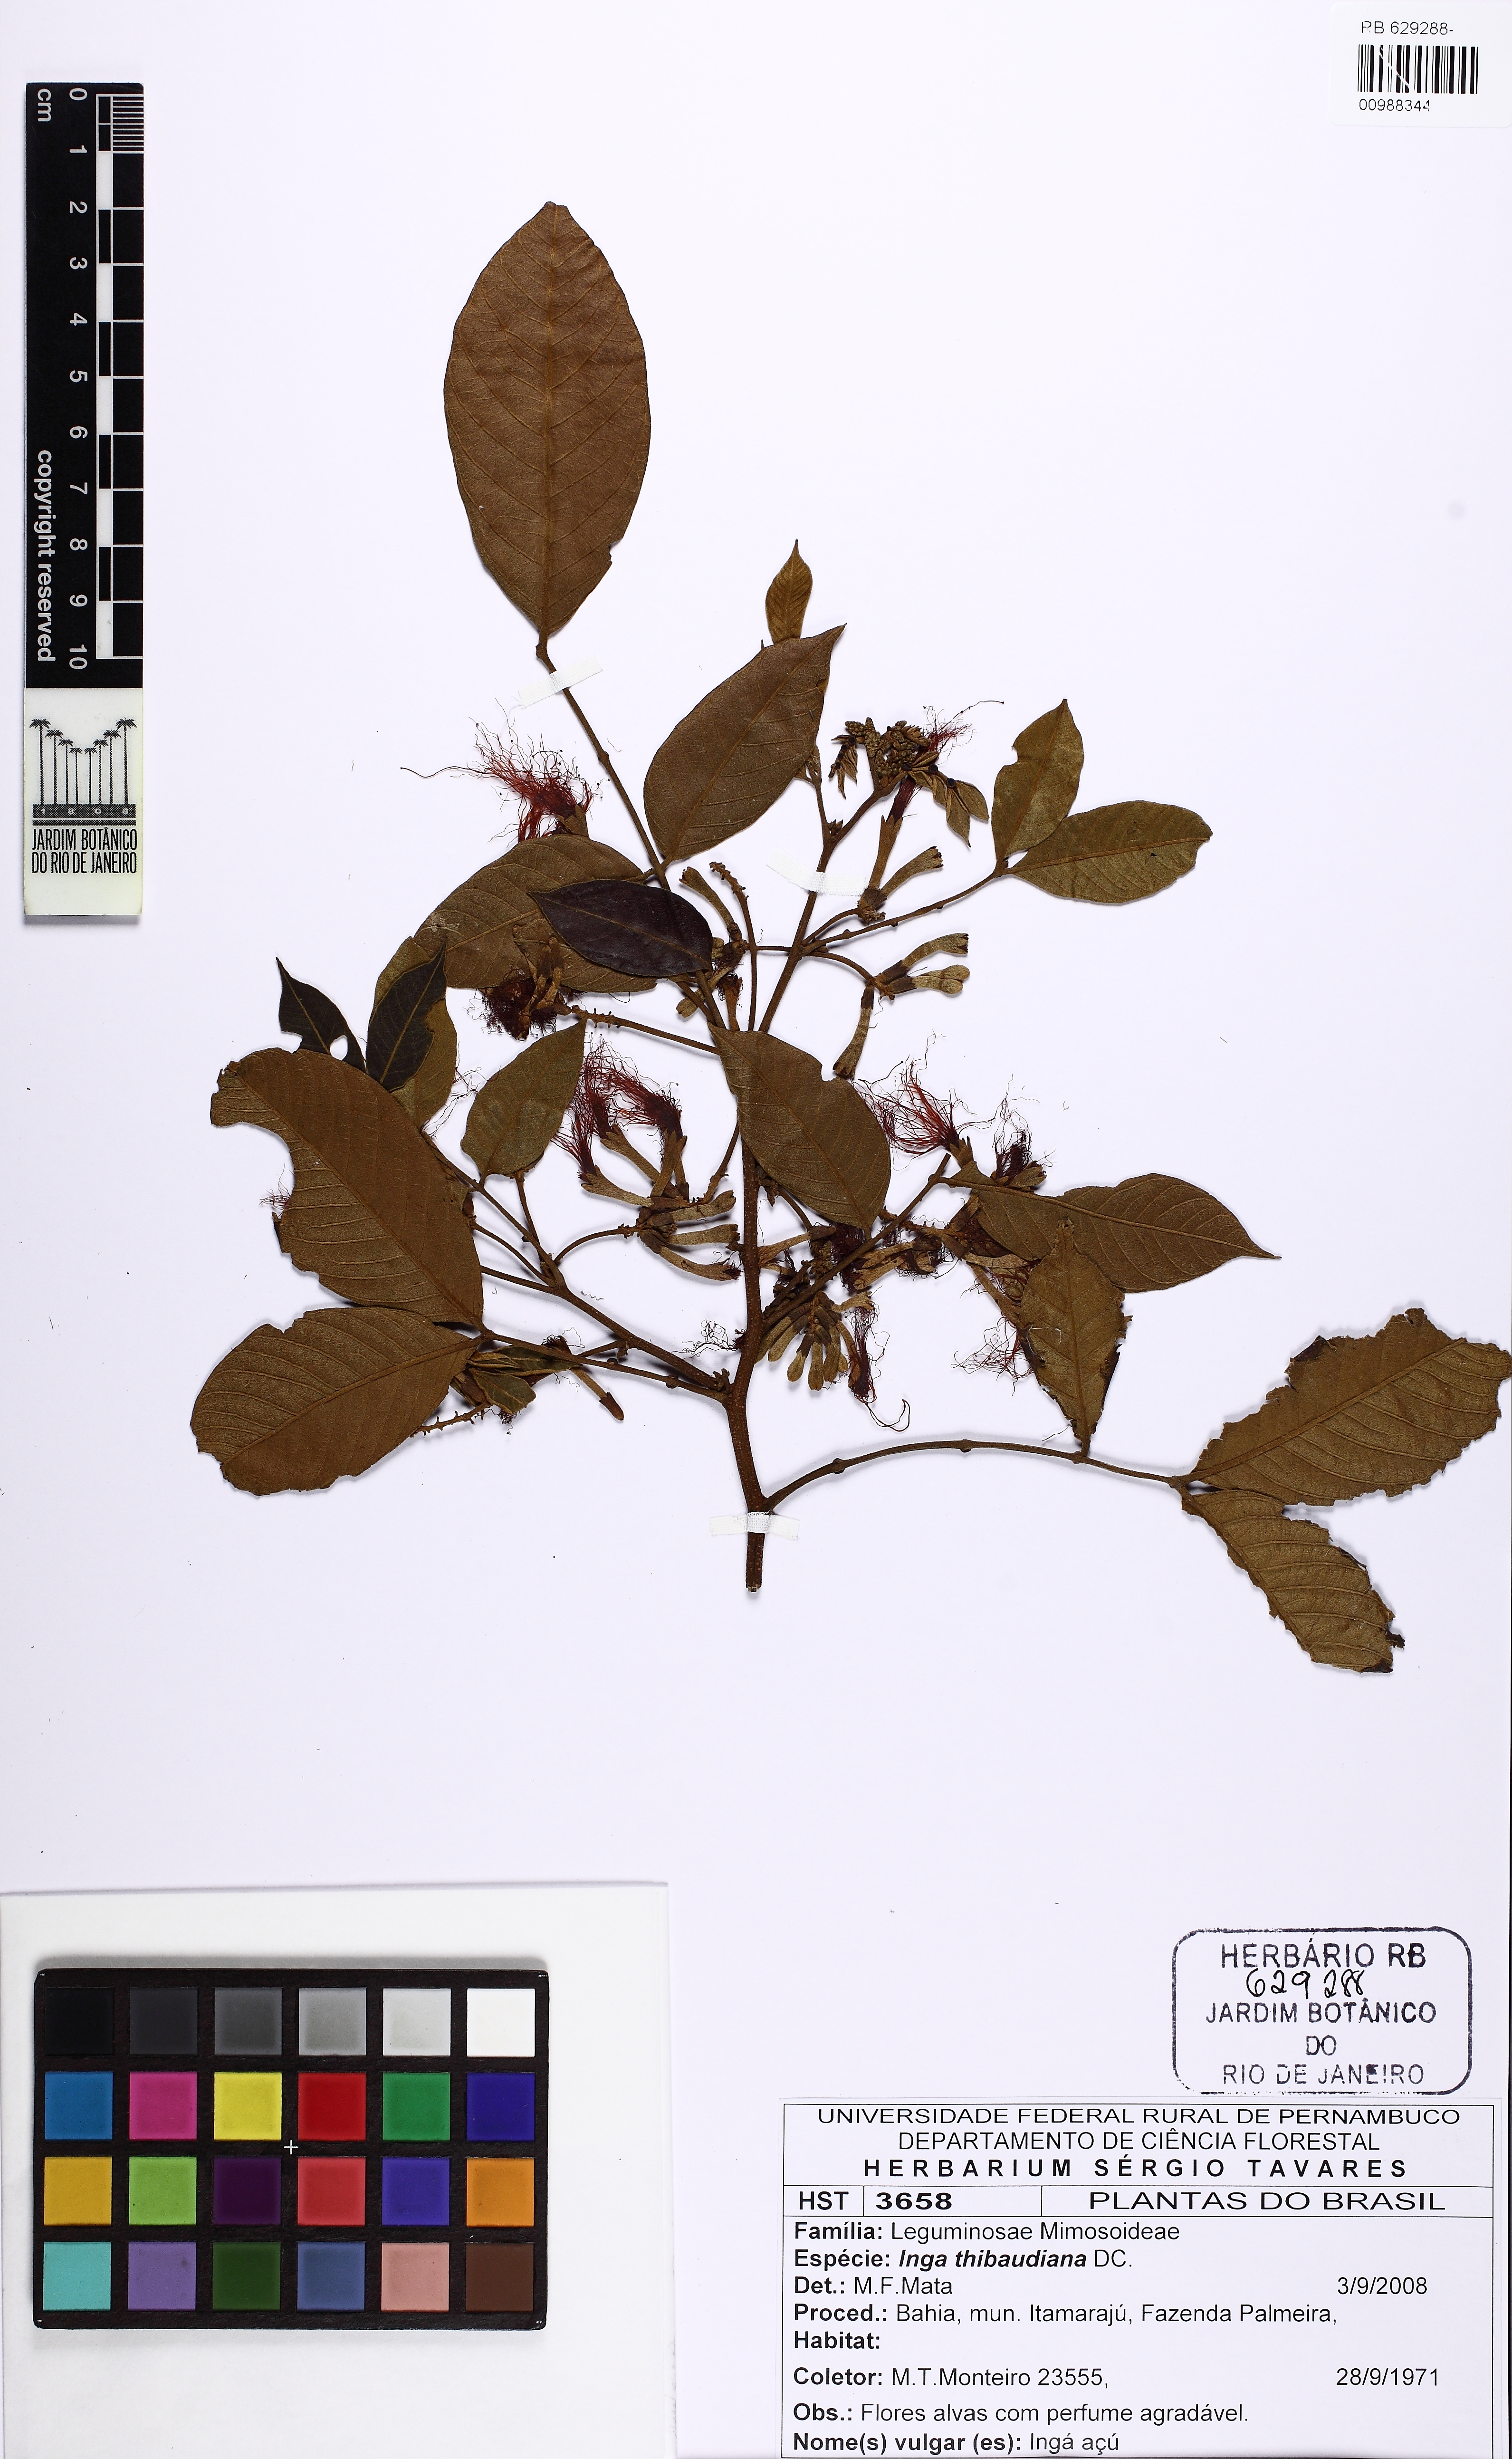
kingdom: Plantae
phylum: Tracheophyta
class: Magnoliopsida
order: Fabales
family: Fabaceae
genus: Inga
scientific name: Inga thibaudiana
